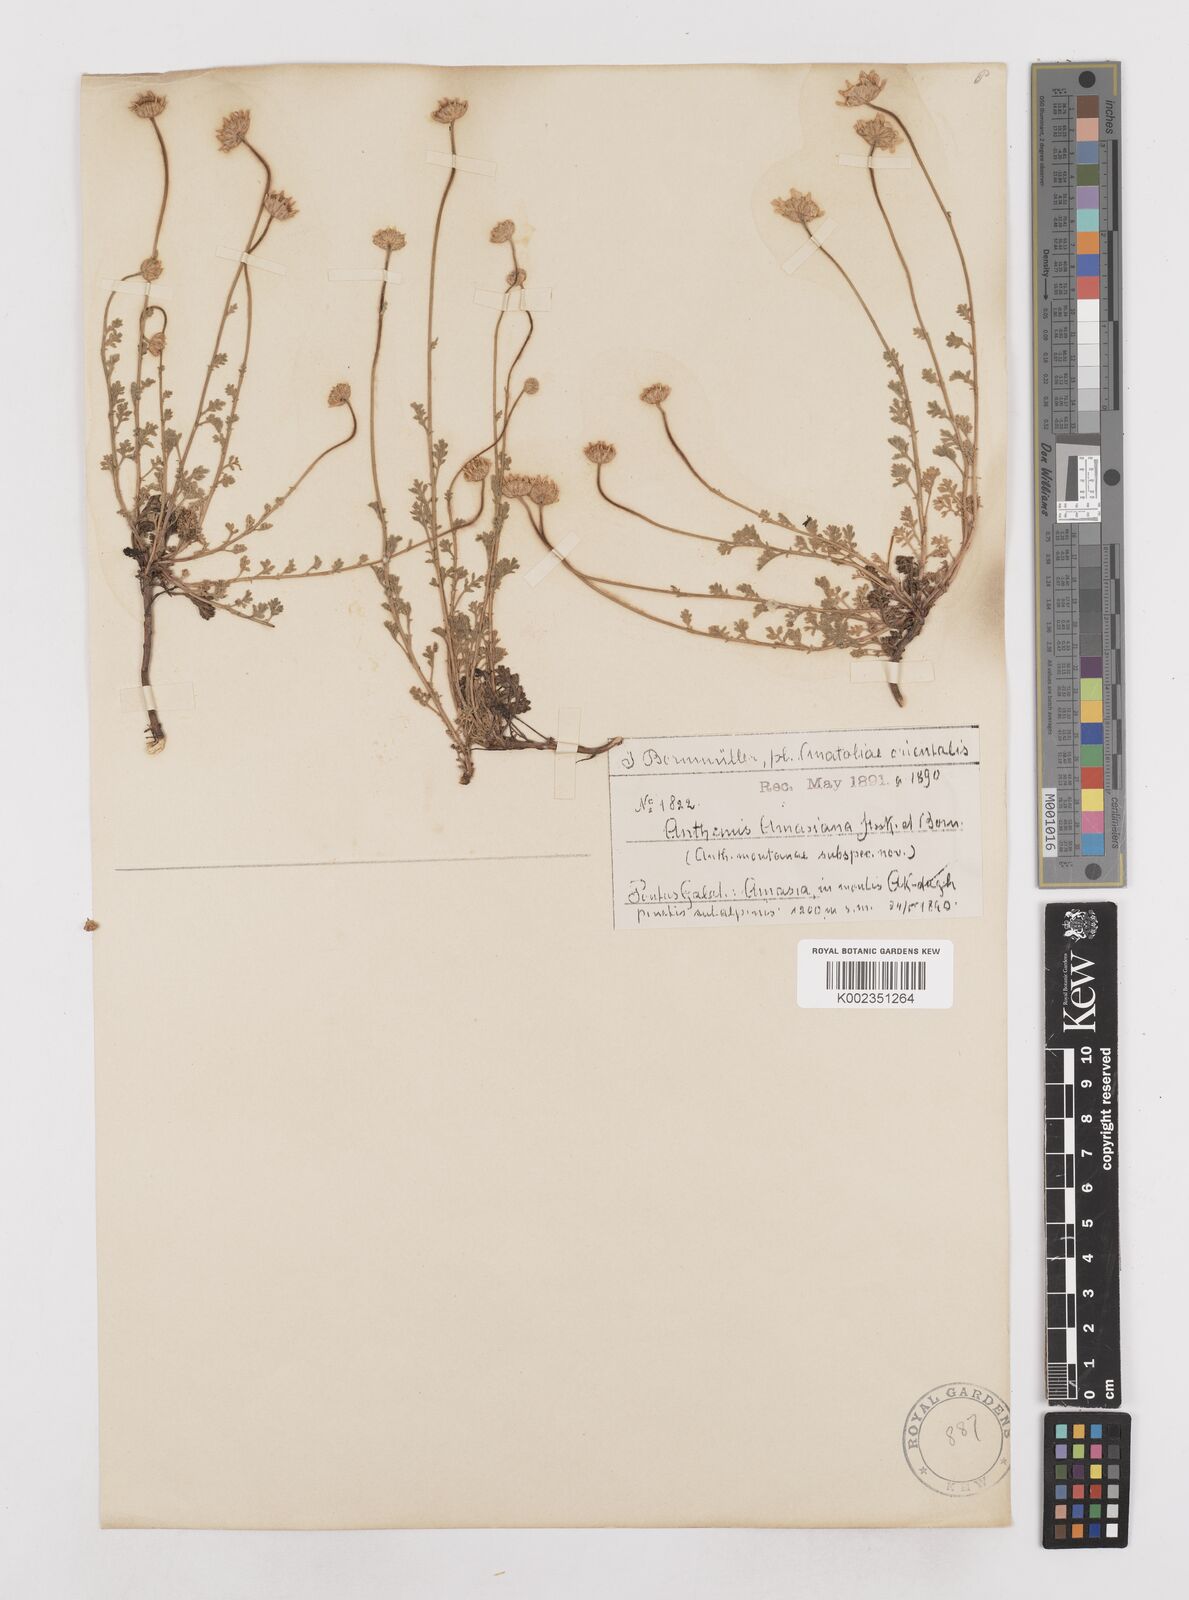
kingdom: Plantae
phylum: Tracheophyta
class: Magnoliopsida
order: Asterales
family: Asteraceae
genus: Anthemis
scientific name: Anthemis cretica
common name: Mountain dog-daisy
